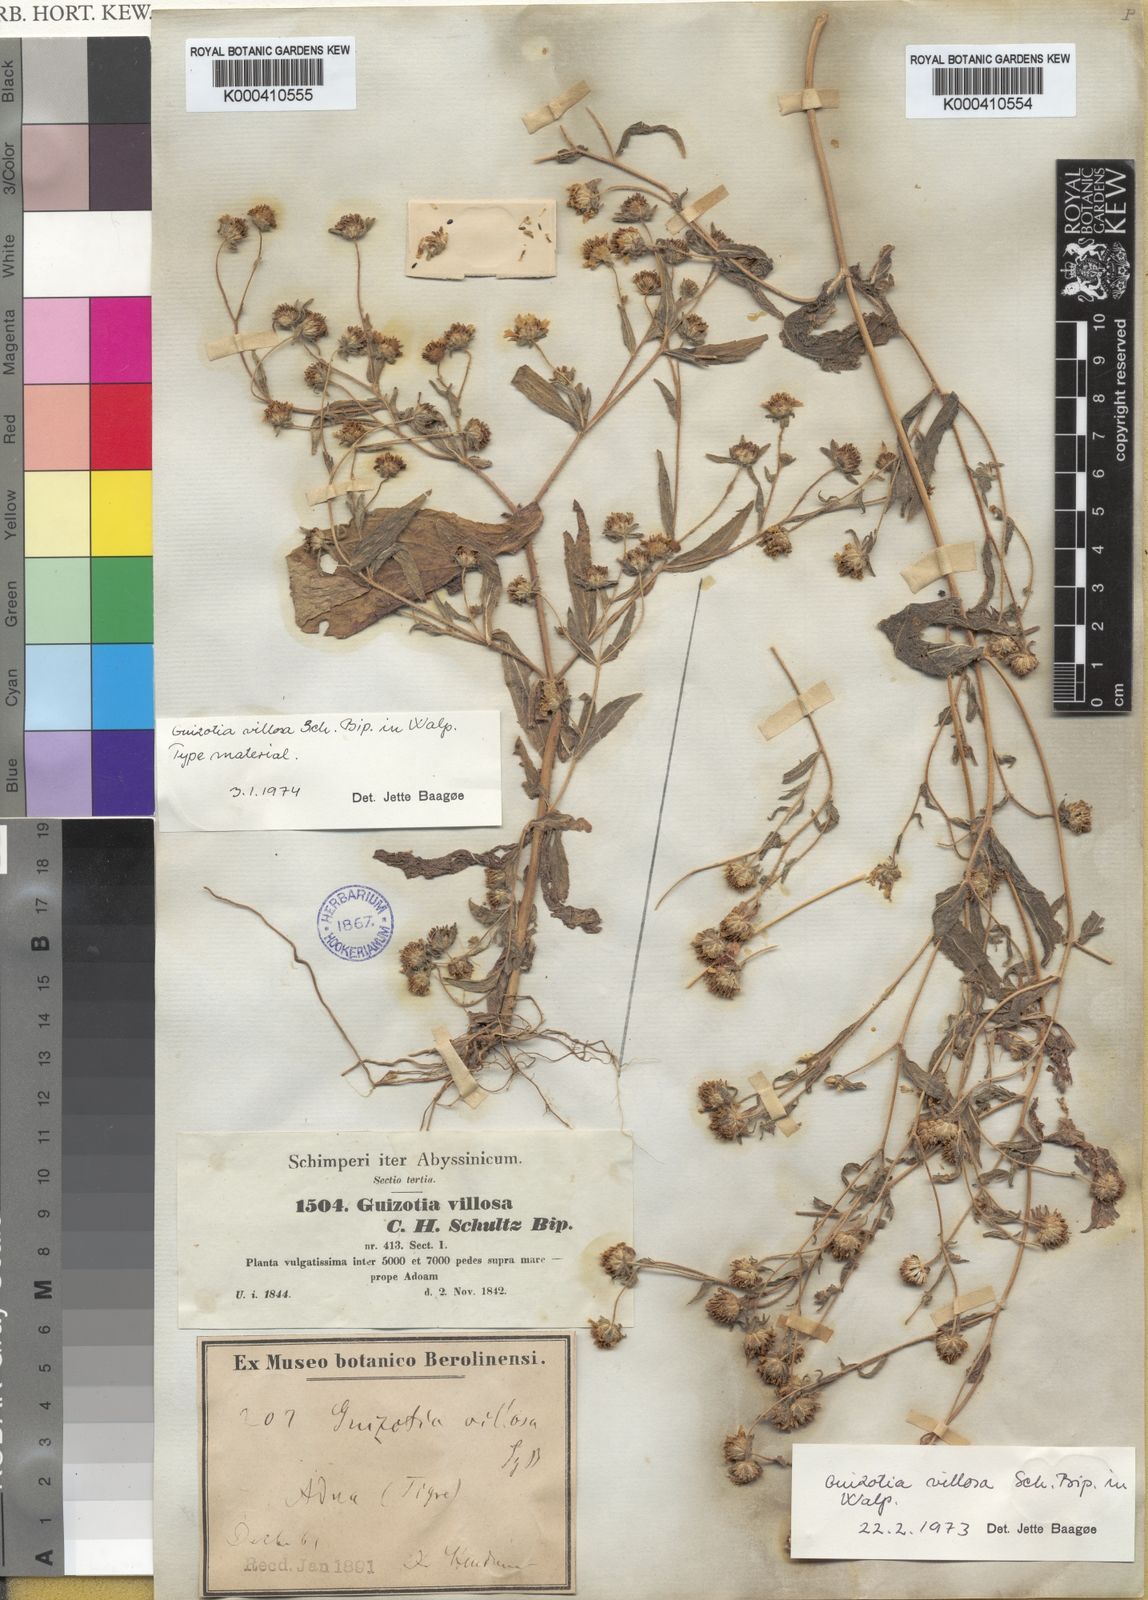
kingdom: Plantae
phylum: Tracheophyta
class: Magnoliopsida
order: Asterales
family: Asteraceae
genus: Guizotia
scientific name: Guizotia
